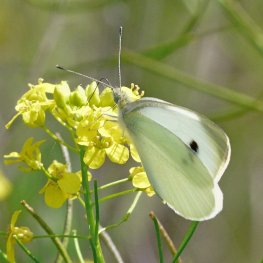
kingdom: Animalia
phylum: Arthropoda
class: Insecta
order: Lepidoptera
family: Pieridae
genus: Pieris
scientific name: Pieris rapae
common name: Cabbage White
